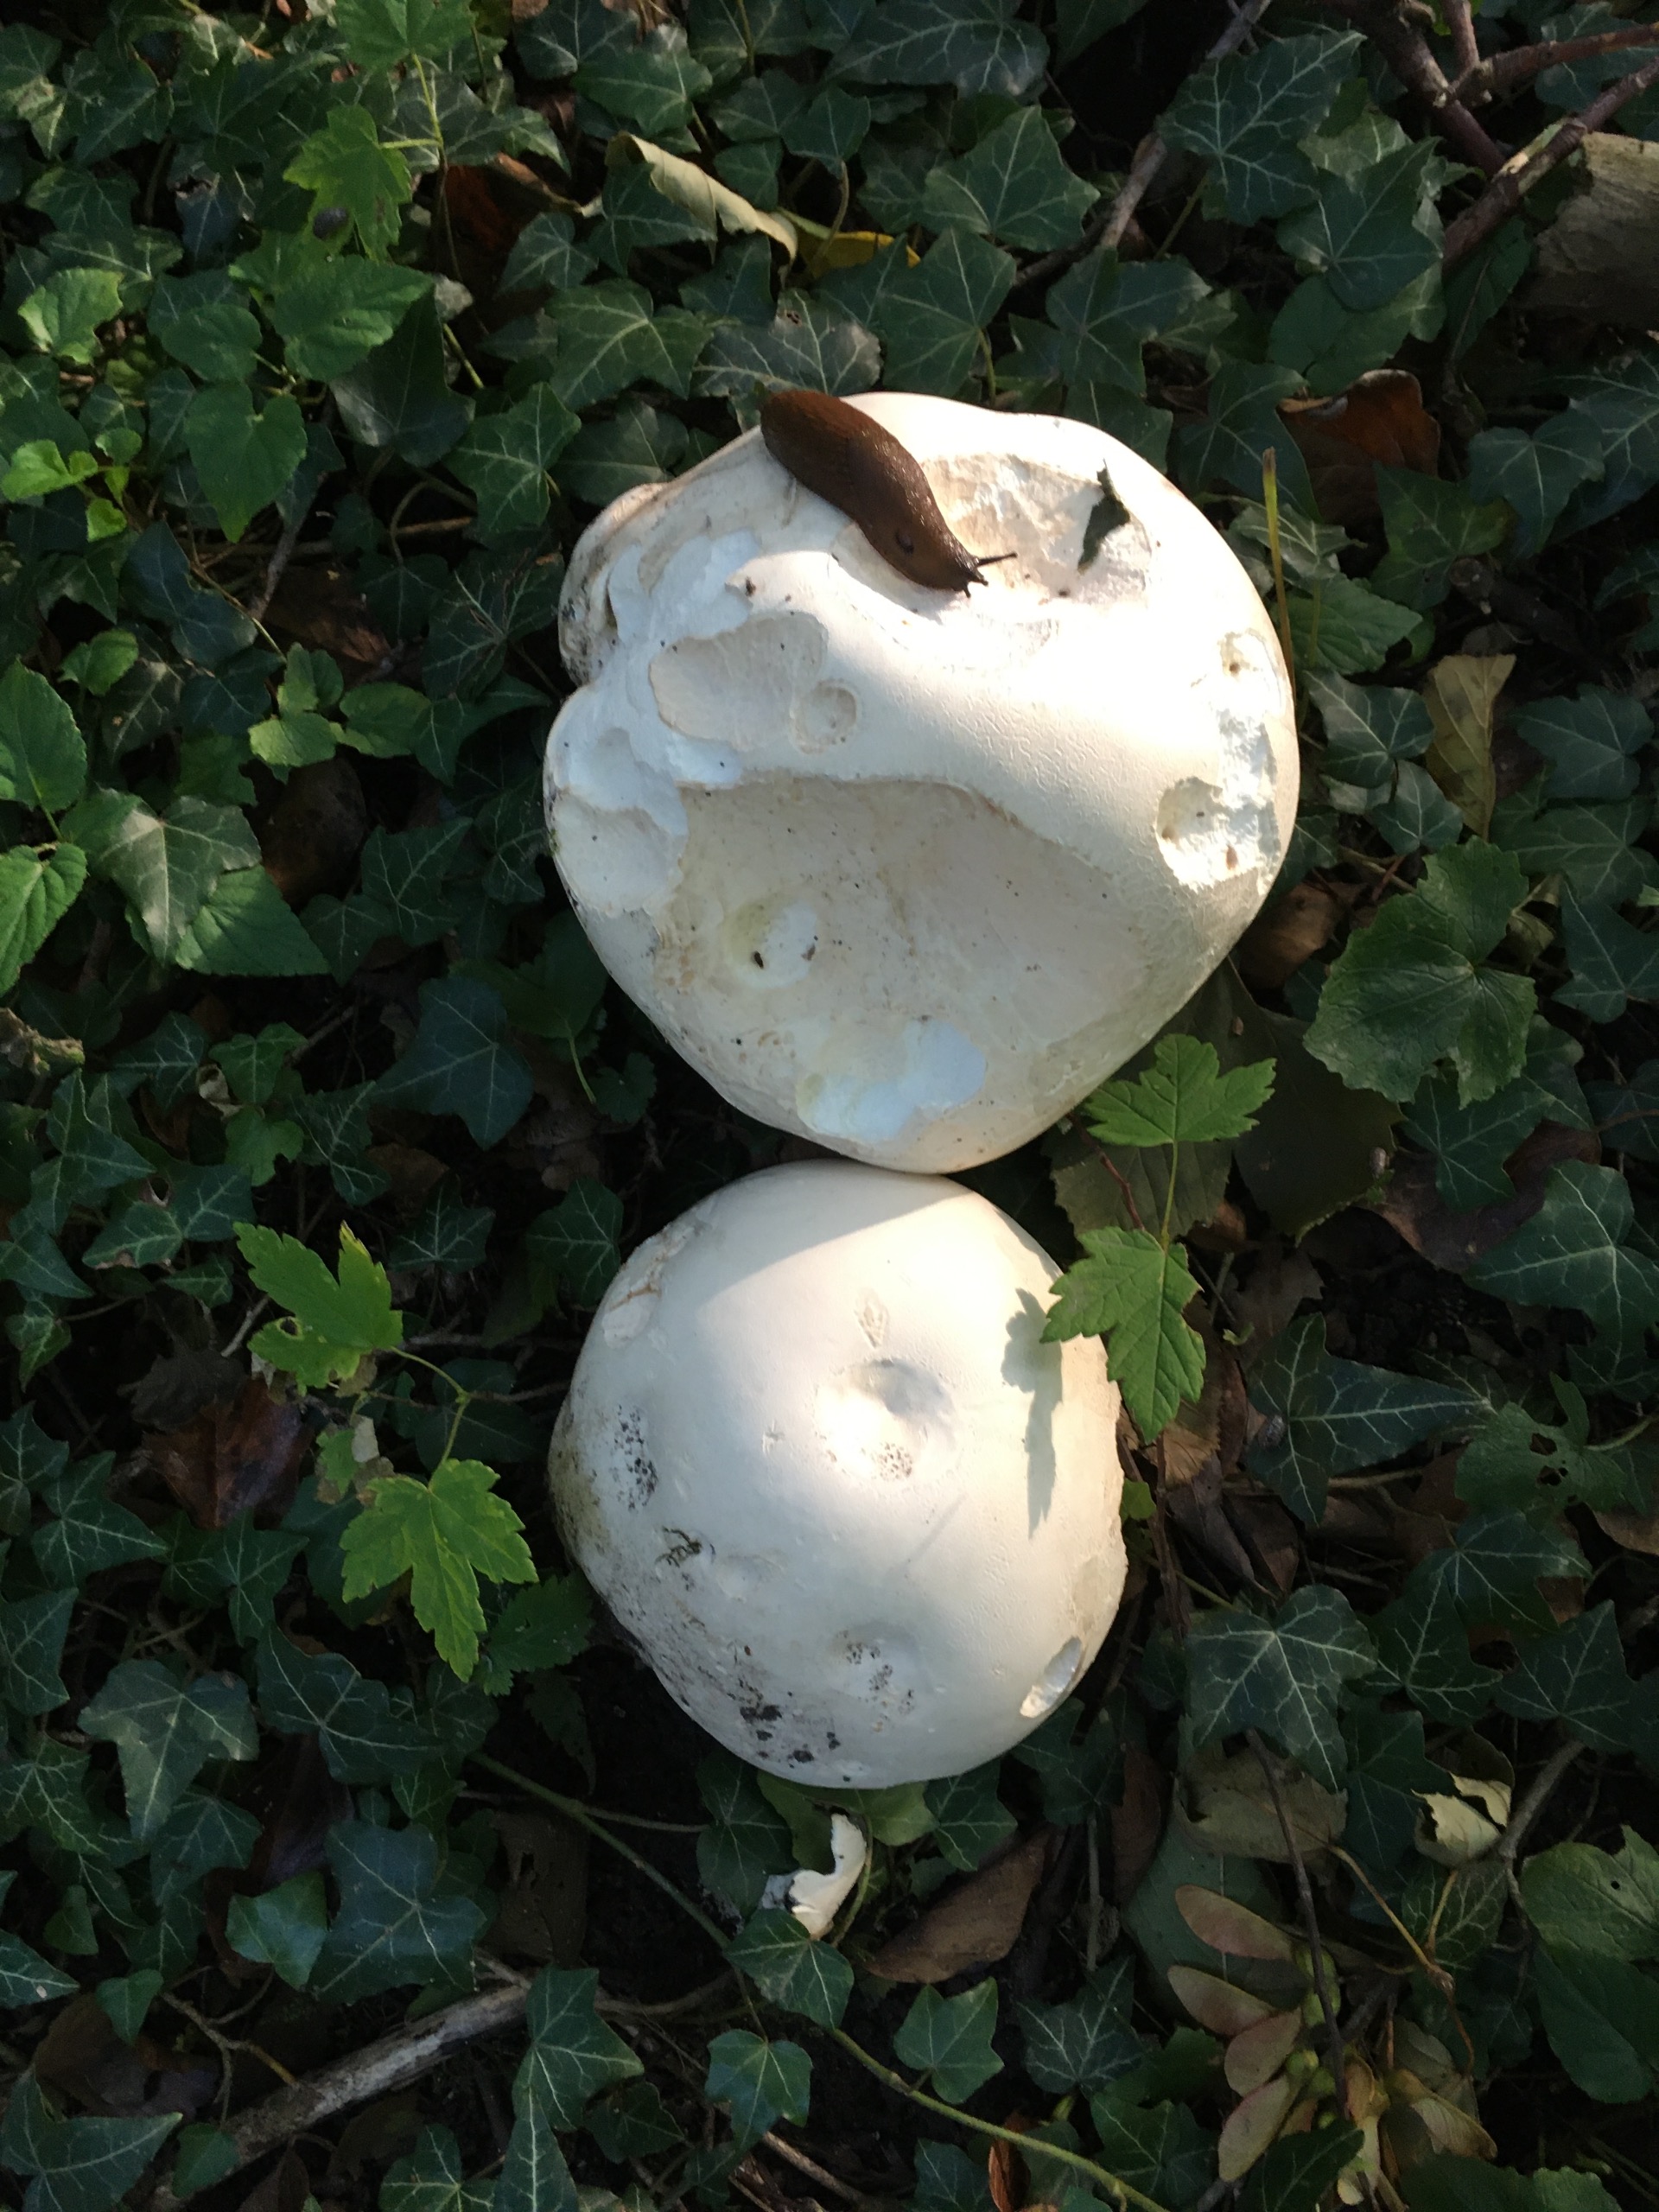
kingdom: Fungi
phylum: Basidiomycota
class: Agaricomycetes
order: Agaricales
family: Lycoperdaceae
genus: Calvatia
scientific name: Calvatia gigantea
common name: Kæmpestøvbold
